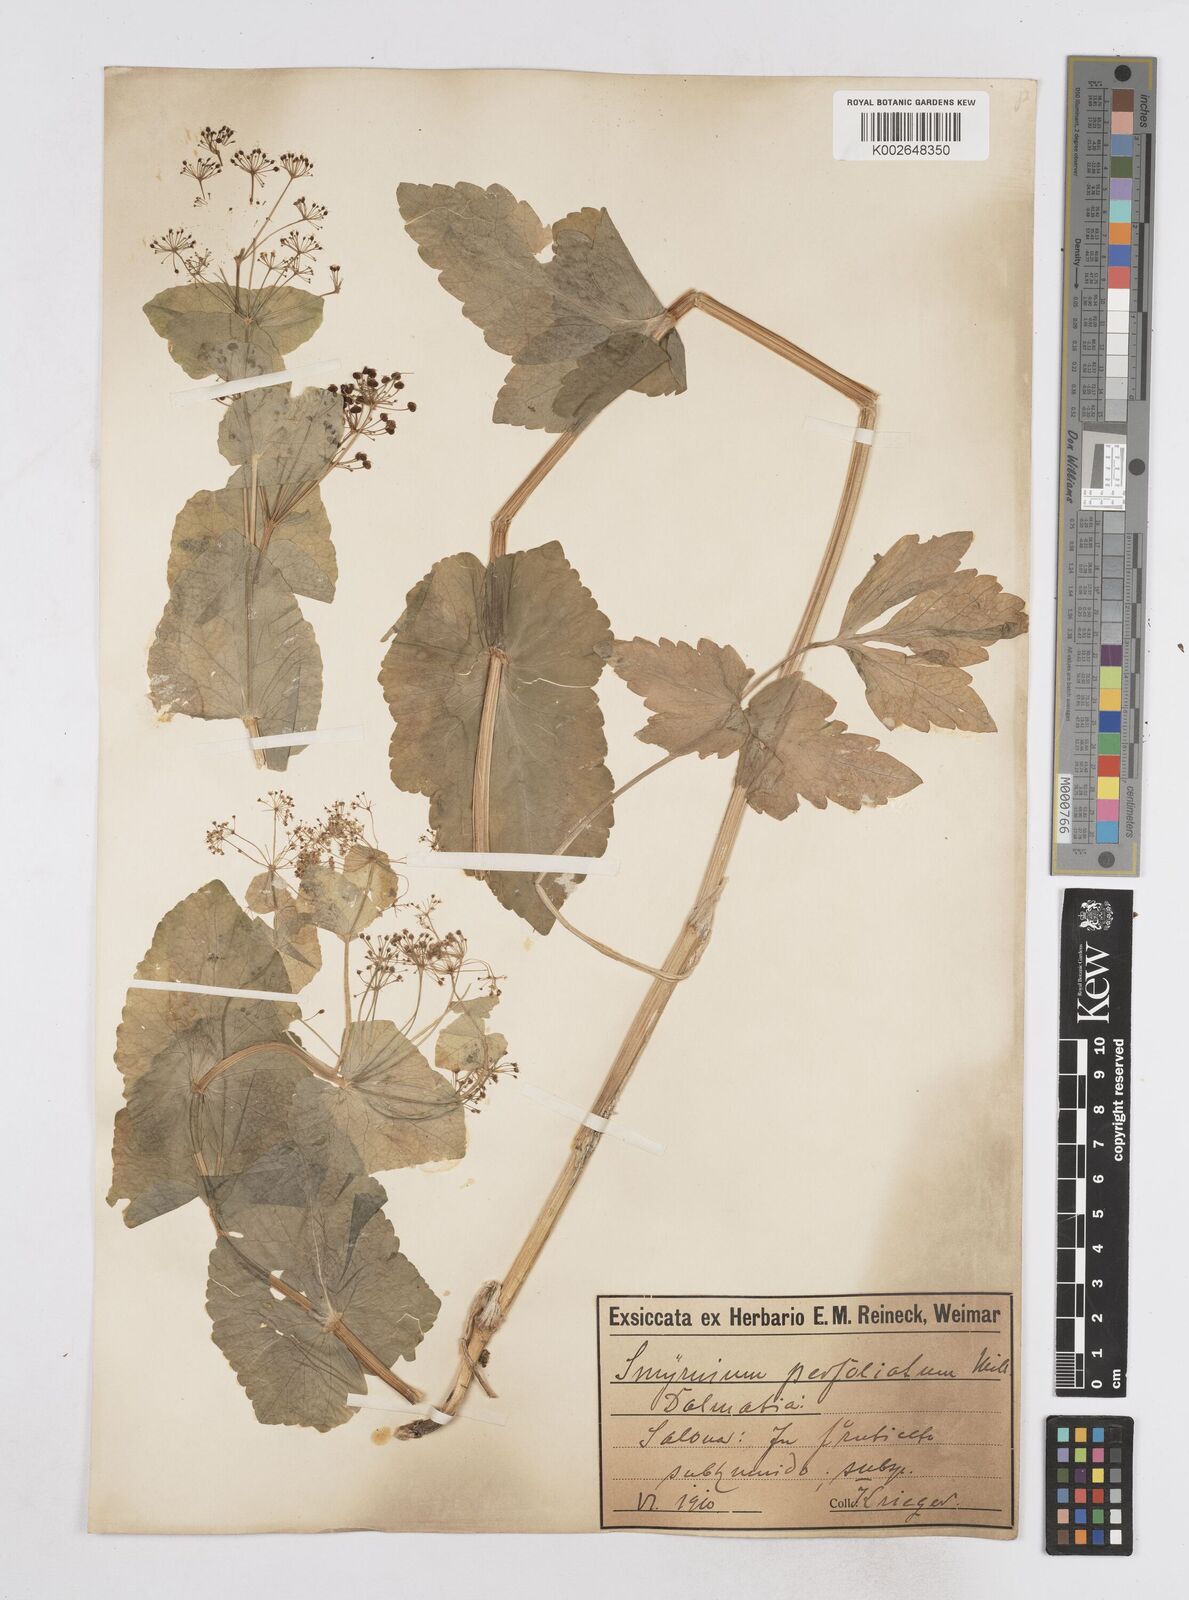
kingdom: Plantae
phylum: Tracheophyta
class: Magnoliopsida
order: Apiales
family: Apiaceae
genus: Smyrnium
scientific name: Smyrnium perfoliatum
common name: Perfoliate alexanders
